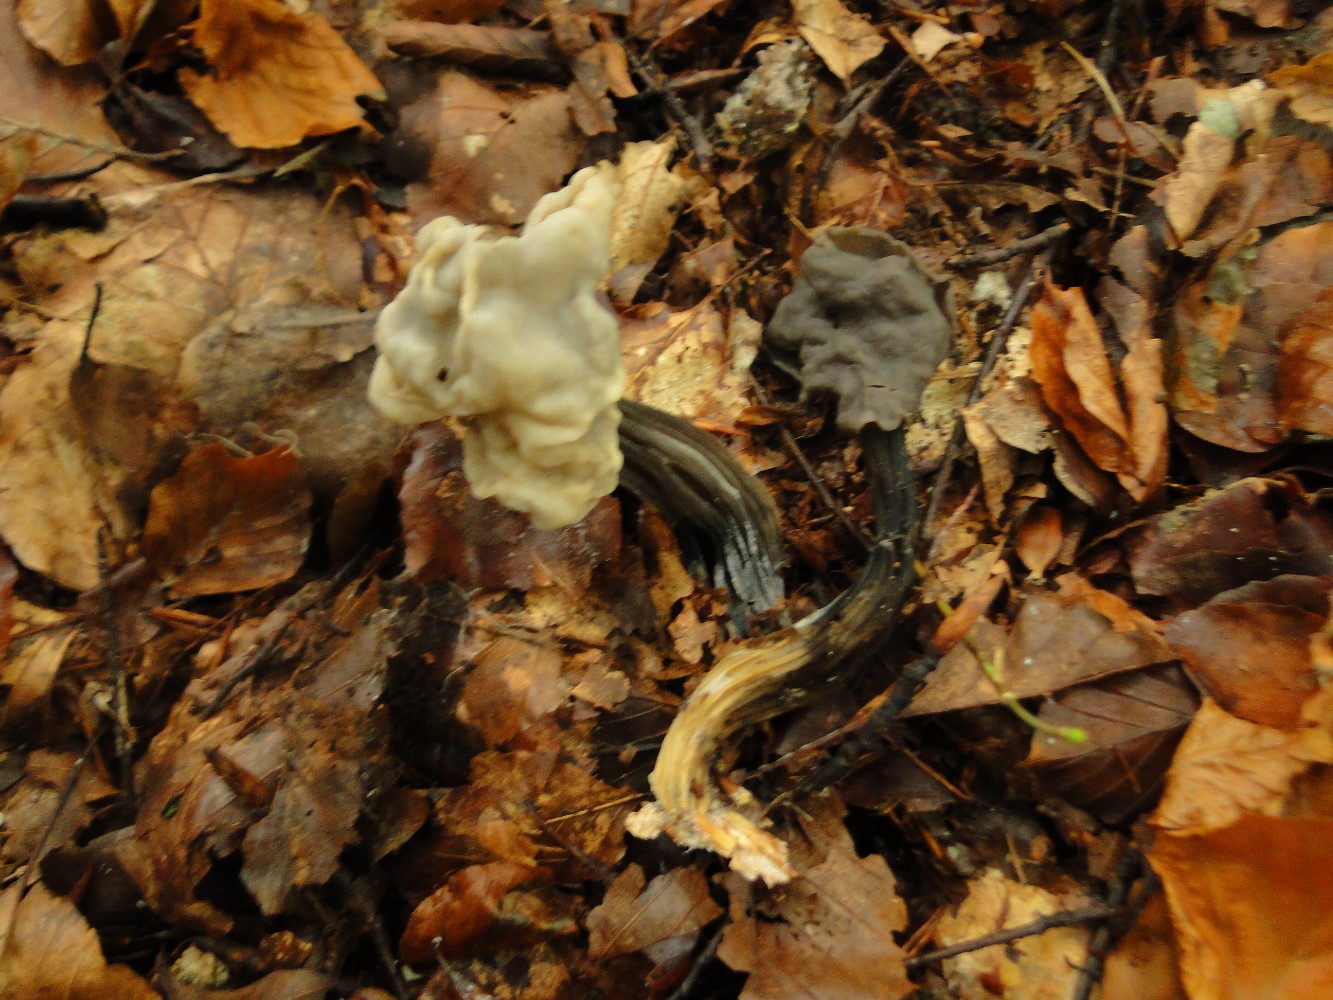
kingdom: Fungi
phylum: Ascomycota
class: Pezizomycetes
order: Pezizales
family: Helvellaceae
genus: Helvella
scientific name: Helvella lacunosa
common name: grubet foldhat
